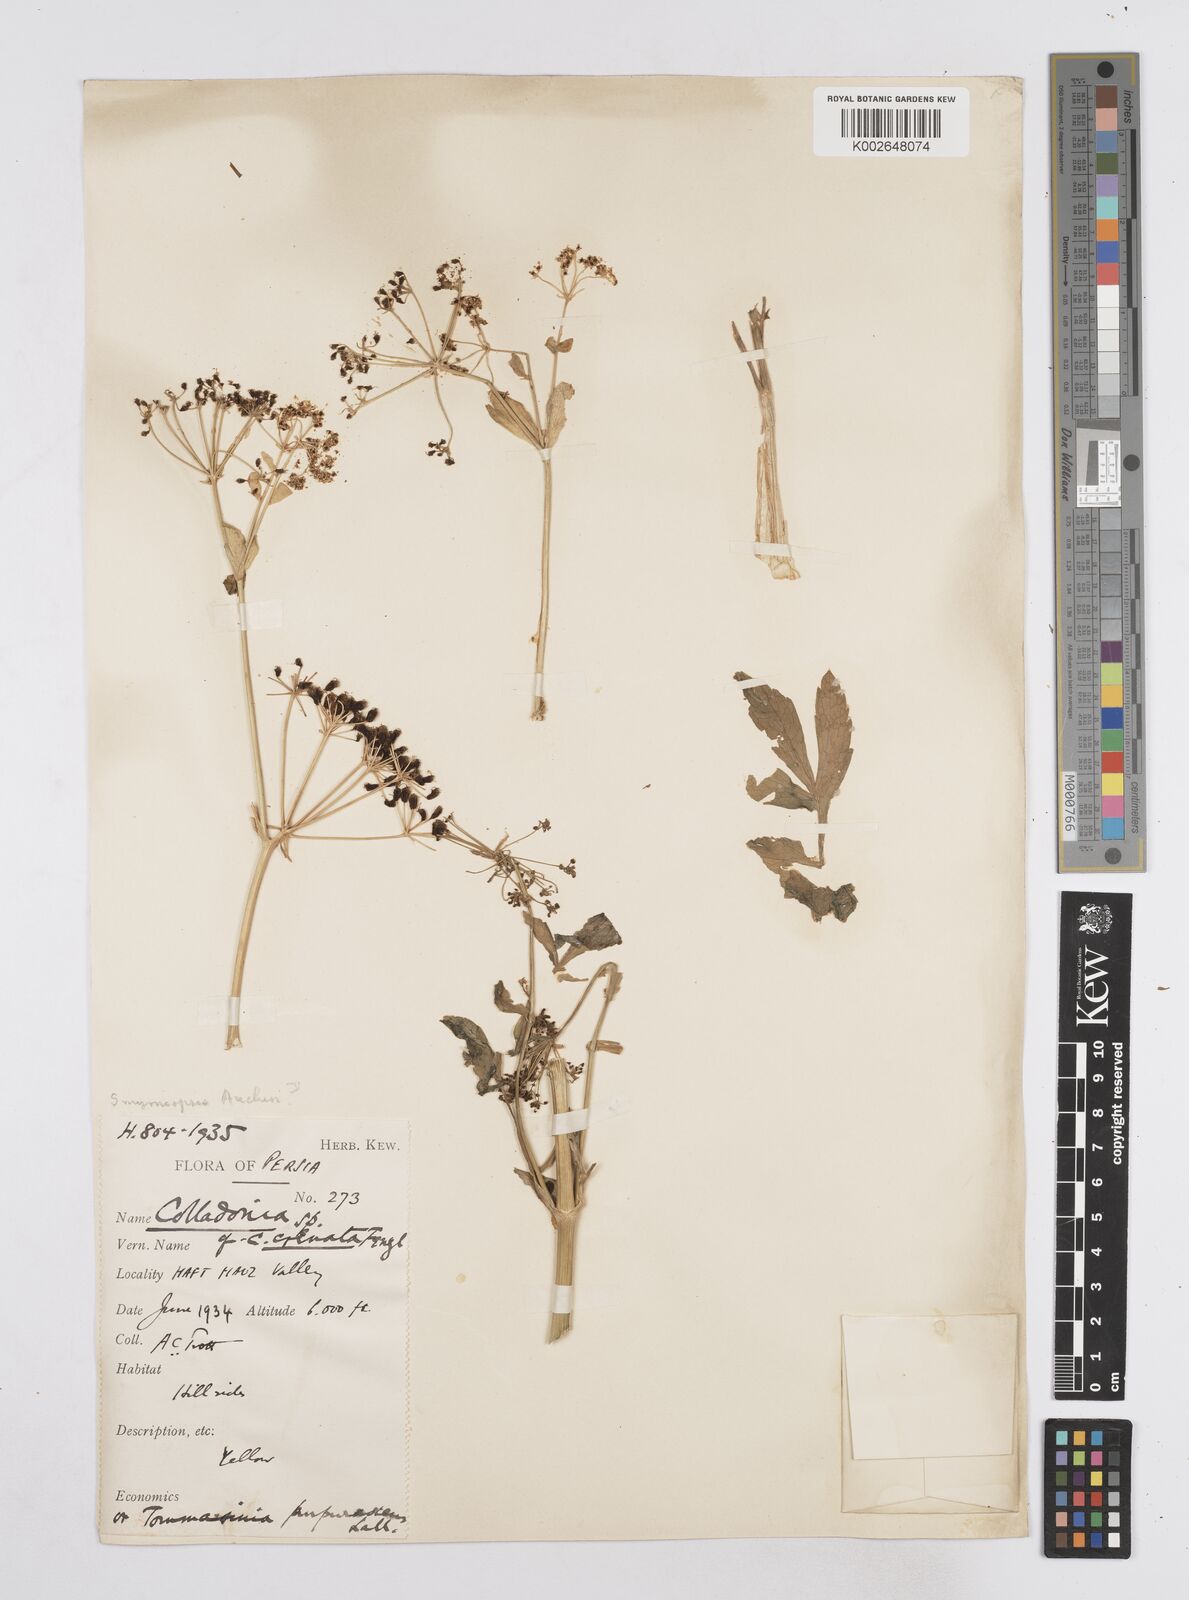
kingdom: Plantae
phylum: Tracheophyta
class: Magnoliopsida
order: Apiales
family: Apiaceae
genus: Smyrniopsis
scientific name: Smyrniopsis aucheri
